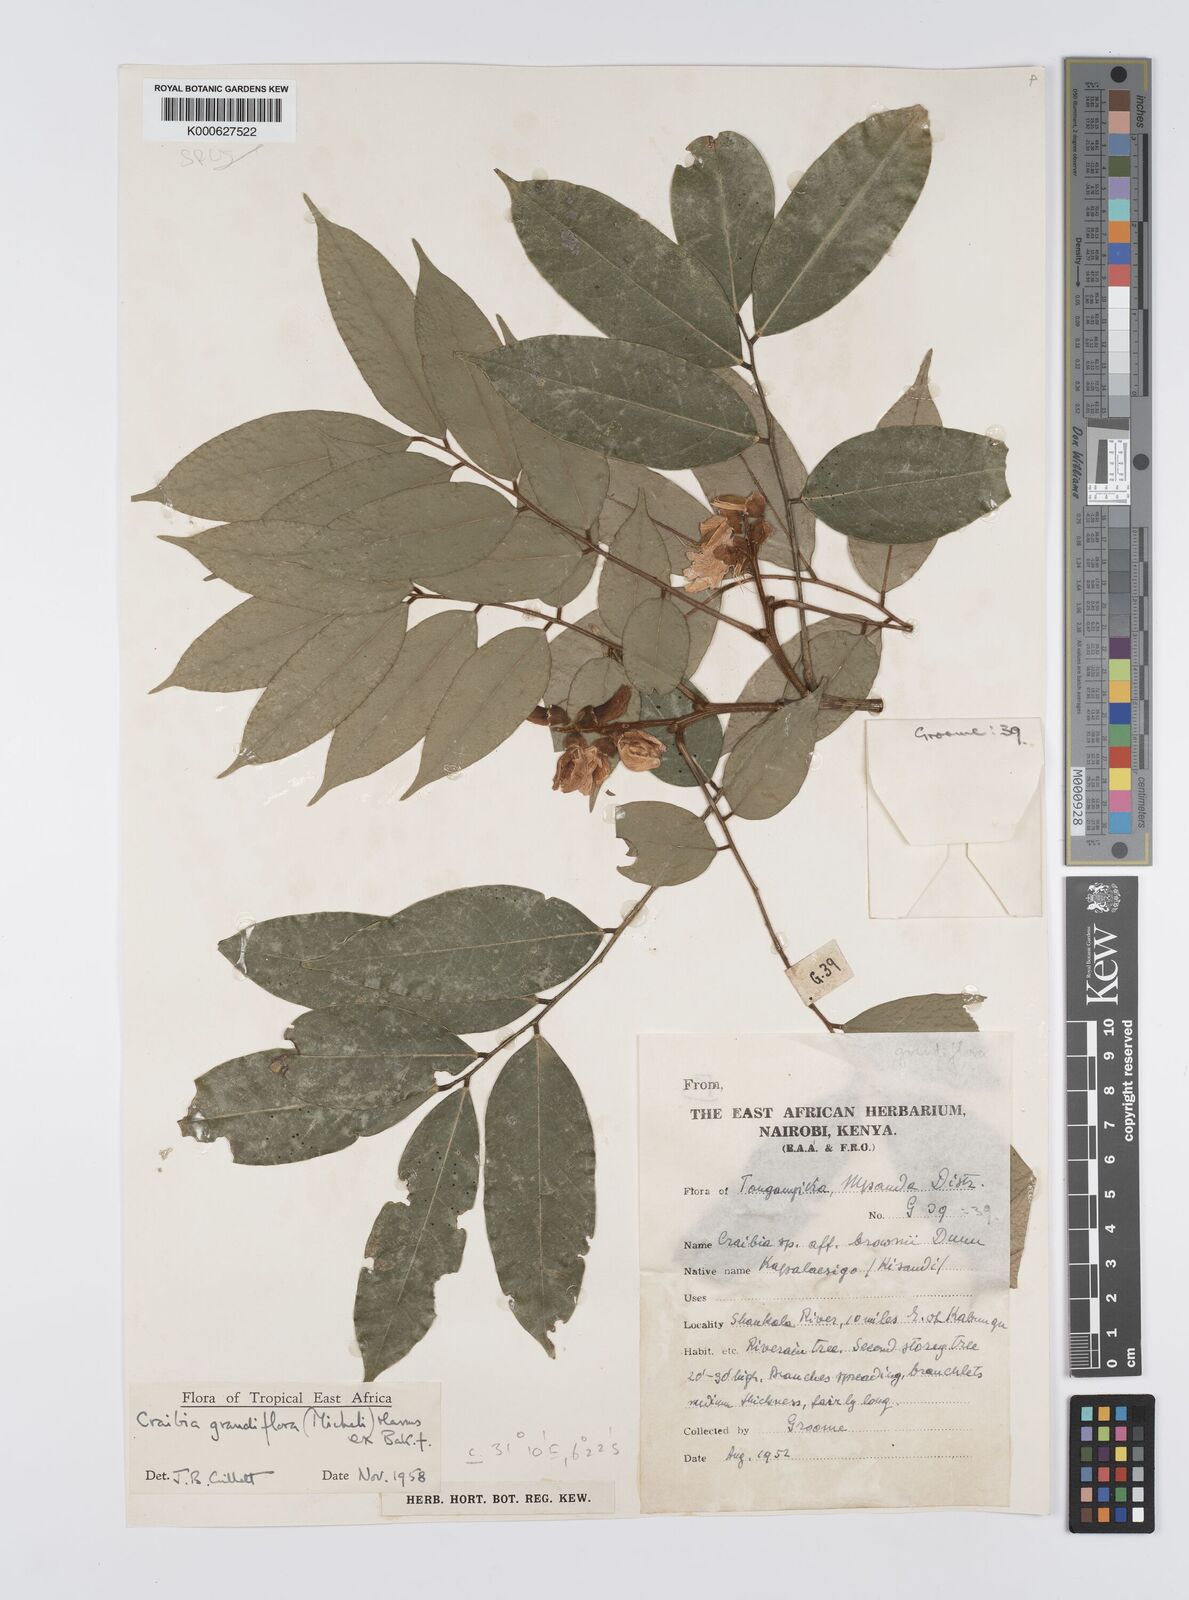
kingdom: Plantae
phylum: Tracheophyta
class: Magnoliopsida
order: Fabales
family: Fabaceae
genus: Craibia
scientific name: Craibia grandiflora
